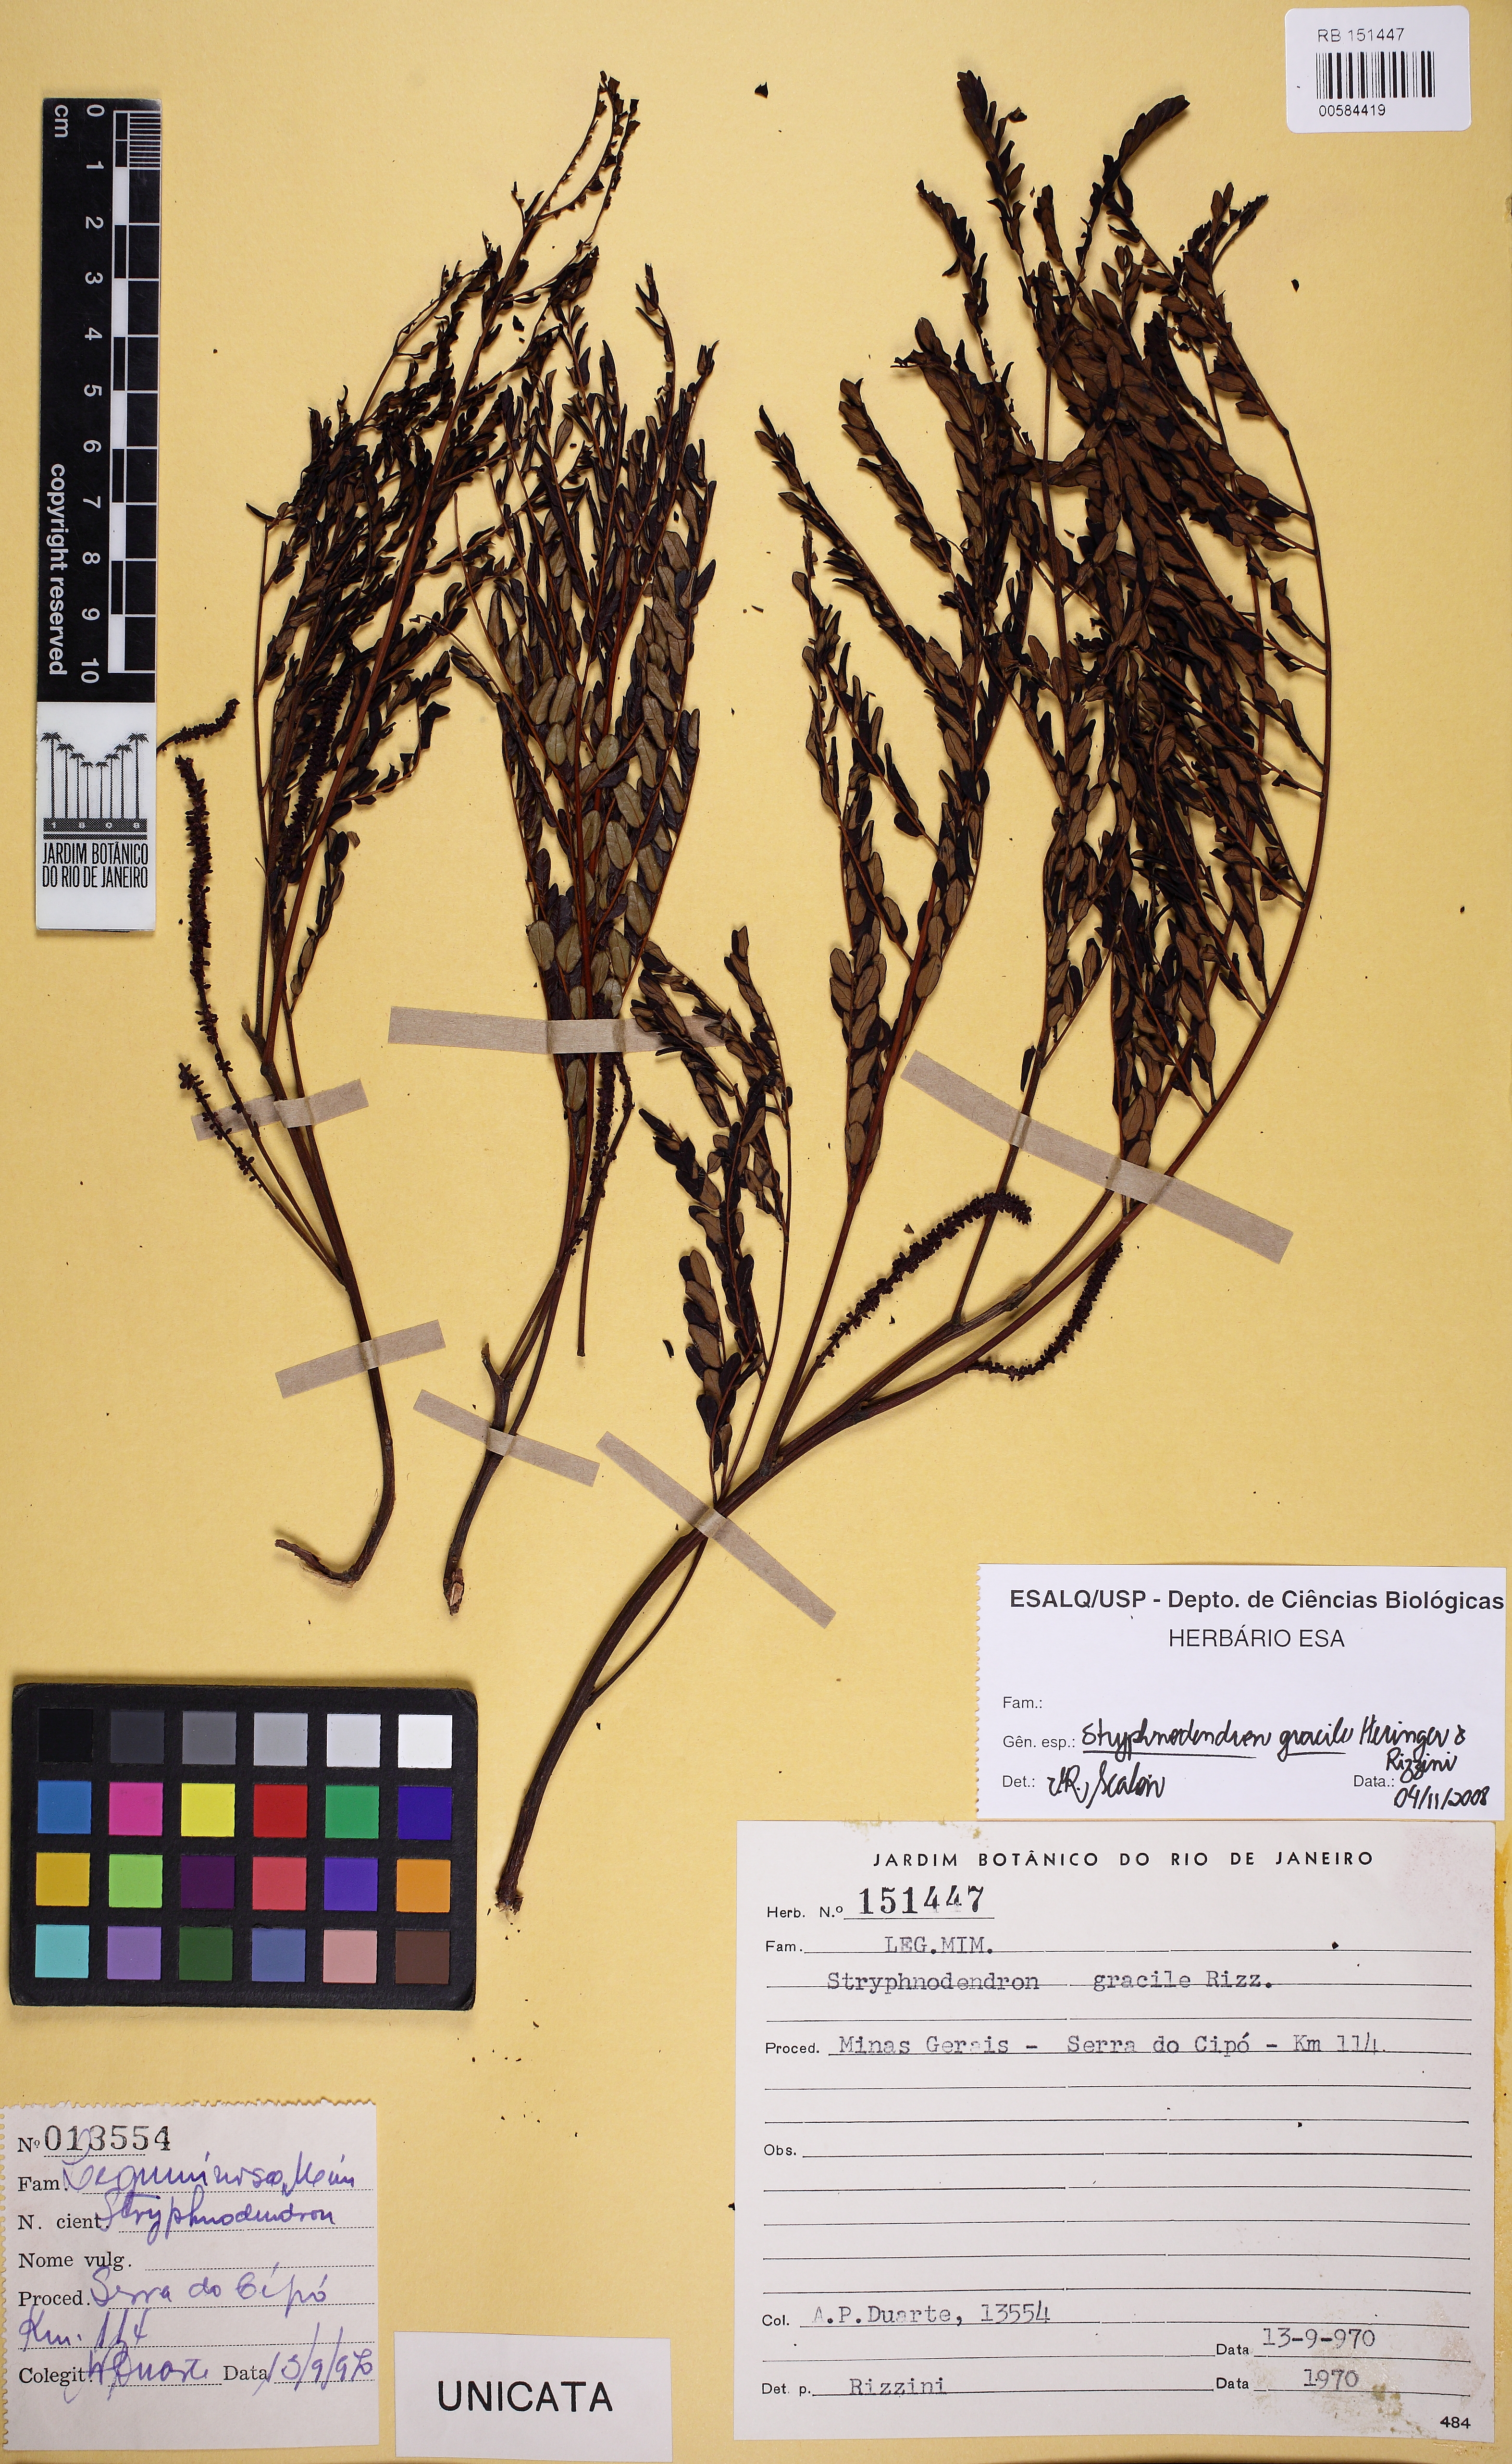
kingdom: Plantae
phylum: Tracheophyta
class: Magnoliopsida
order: Fabales
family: Fabaceae
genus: Stryphnodendron
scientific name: Stryphnodendron gracile
